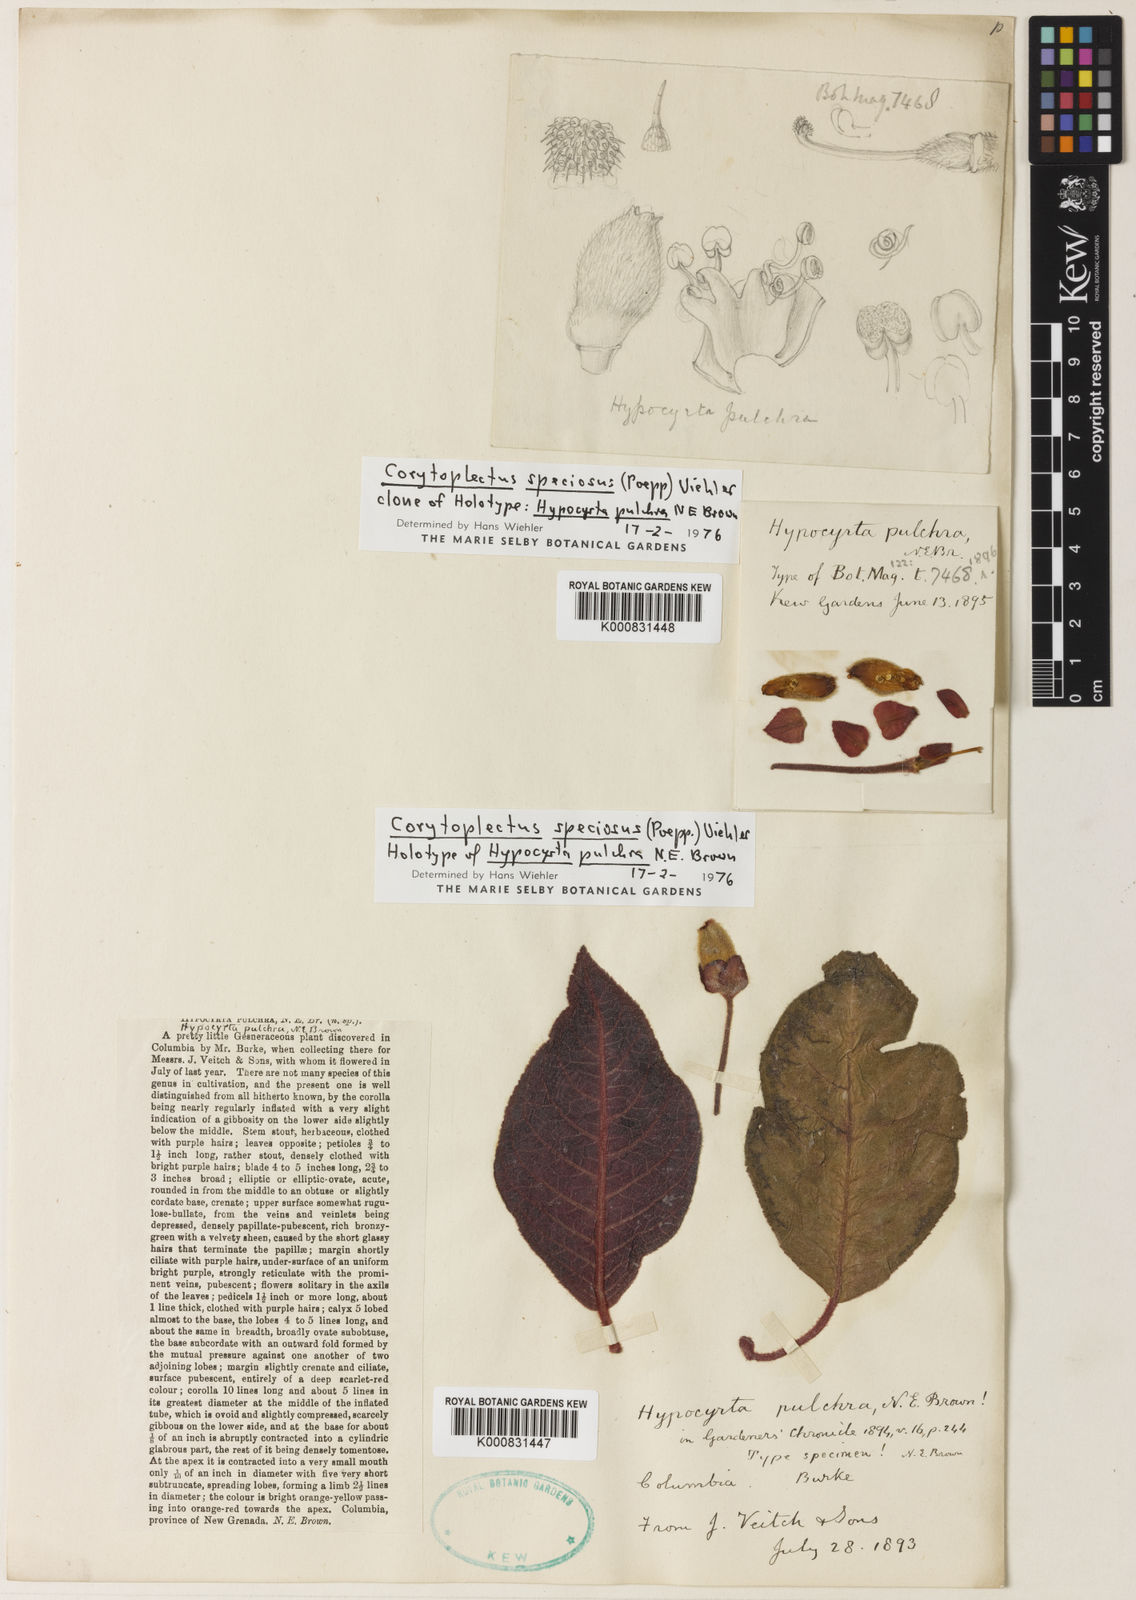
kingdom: Plantae
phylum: Tracheophyta
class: Magnoliopsida
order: Lamiales
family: Gesneriaceae
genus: Corytoplectus
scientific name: Corytoplectus speciosus
